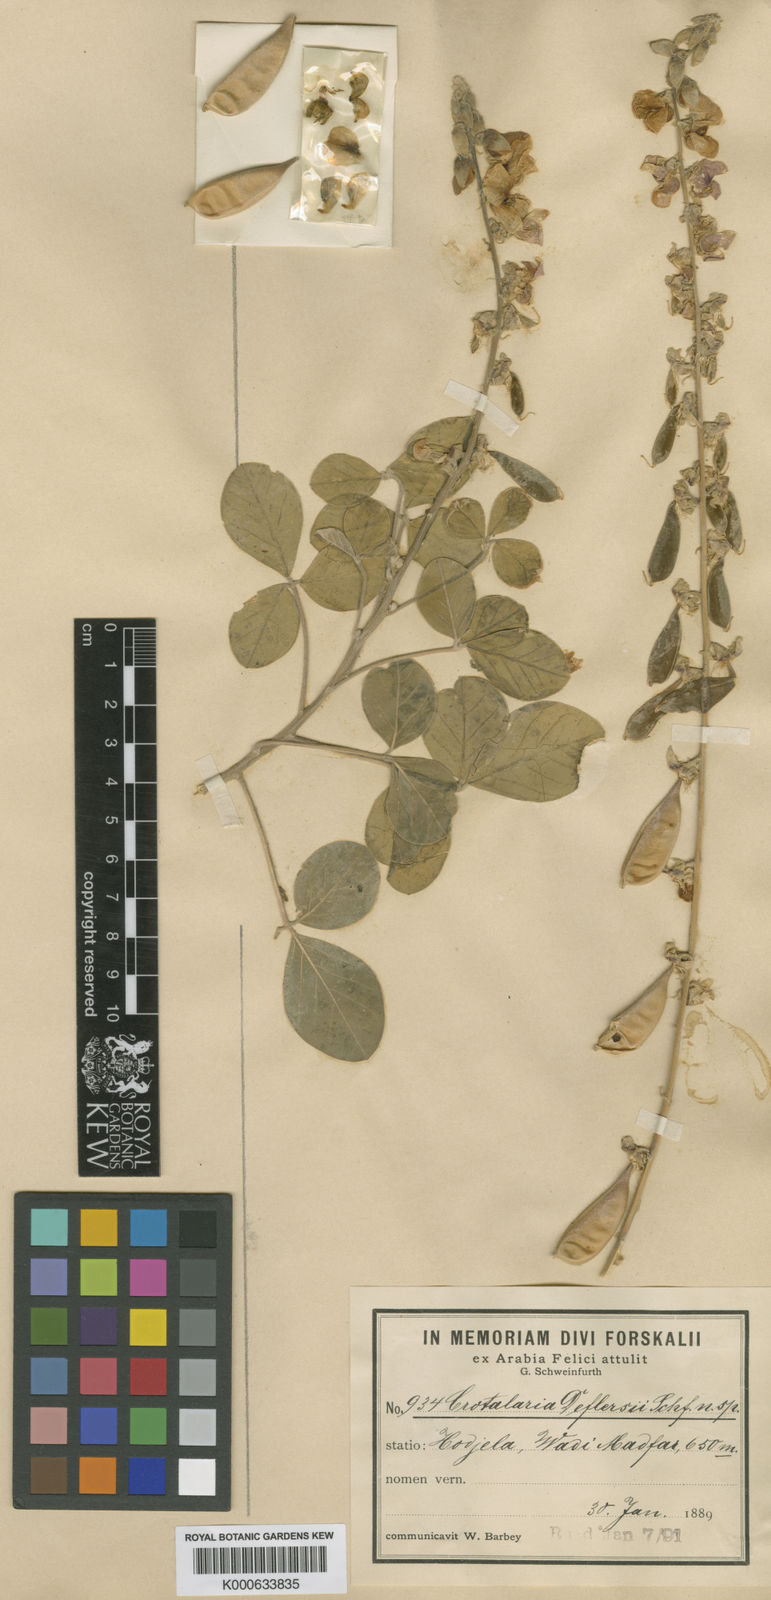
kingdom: Plantae
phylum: Tracheophyta
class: Magnoliopsida
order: Fabales
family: Fabaceae
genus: Crotalaria
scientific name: Crotalaria deflersii
